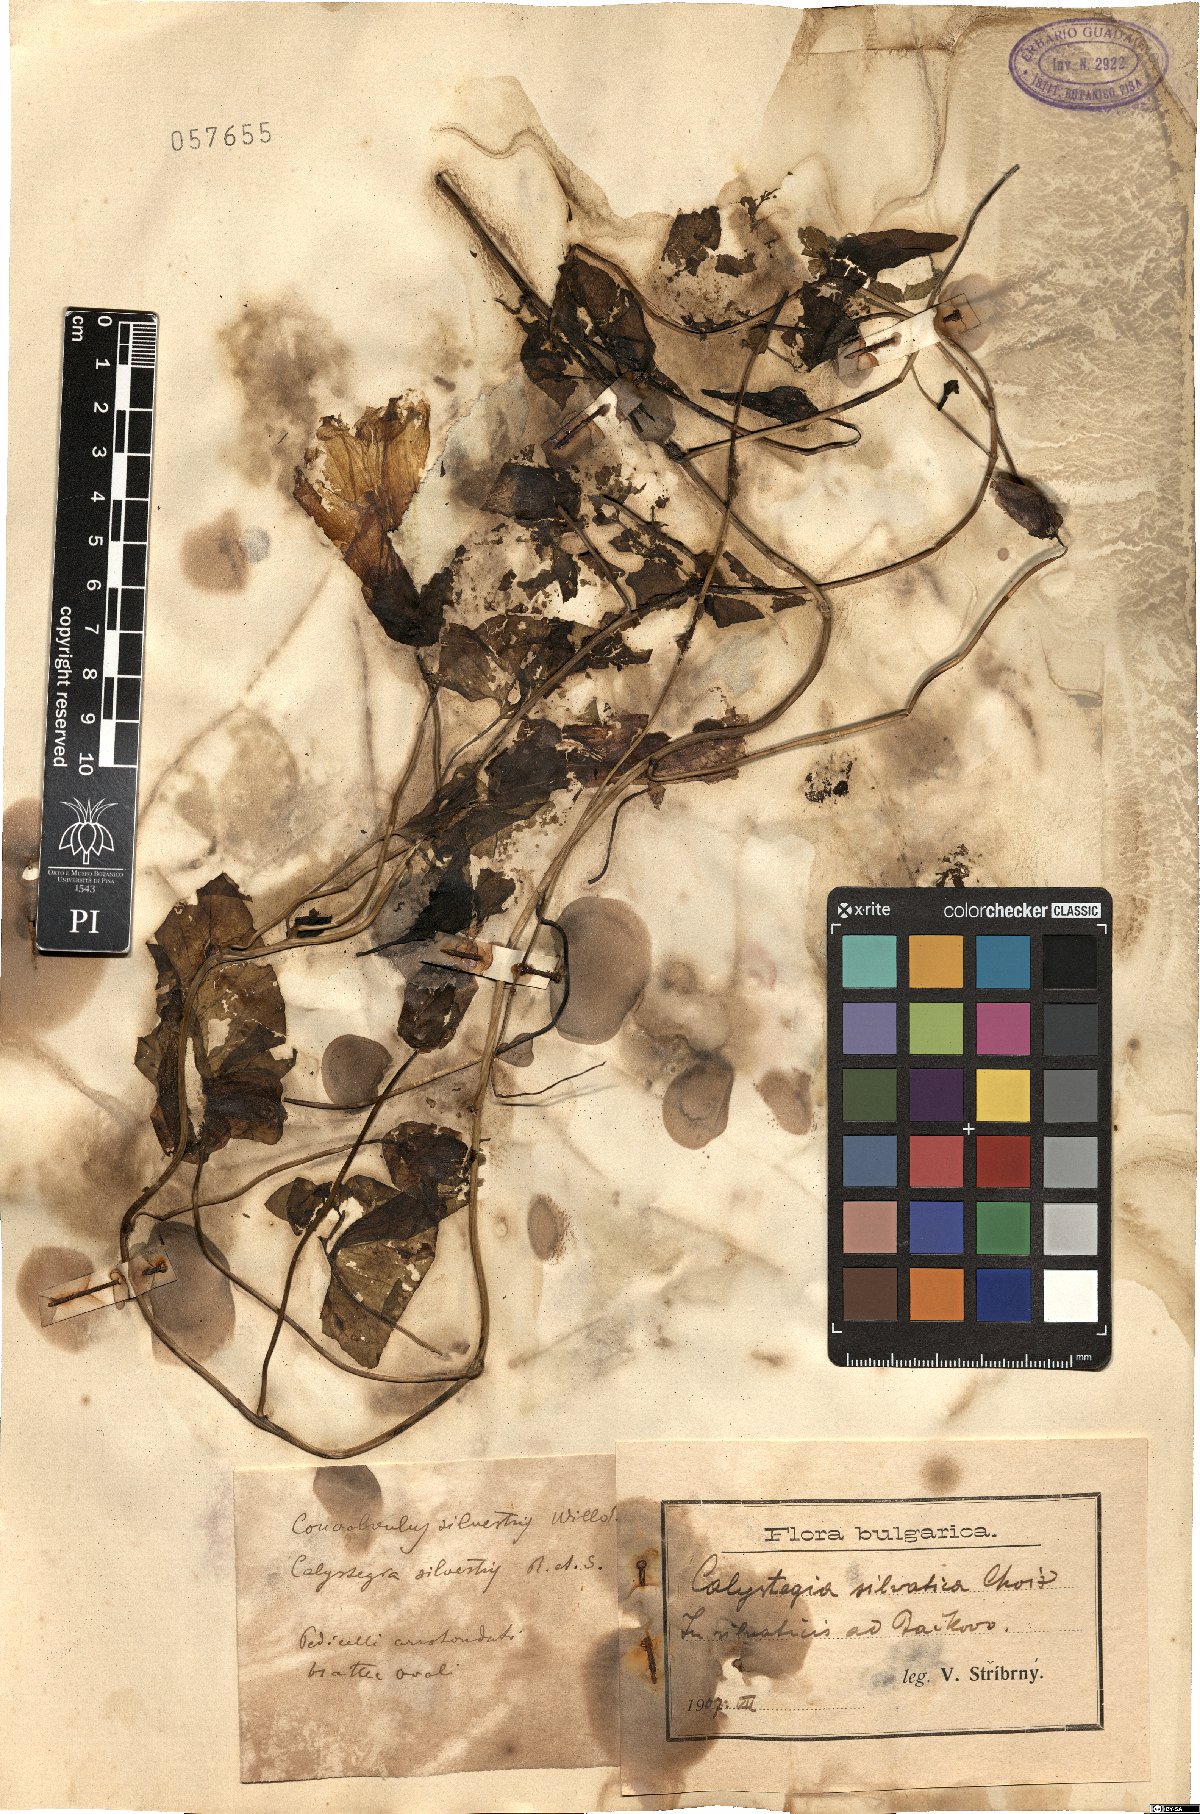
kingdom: Plantae
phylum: Tracheophyta
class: Magnoliopsida
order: Solanales
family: Convolvulaceae
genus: Calystegia
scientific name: Calystegia silvatica
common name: Large bindweed
